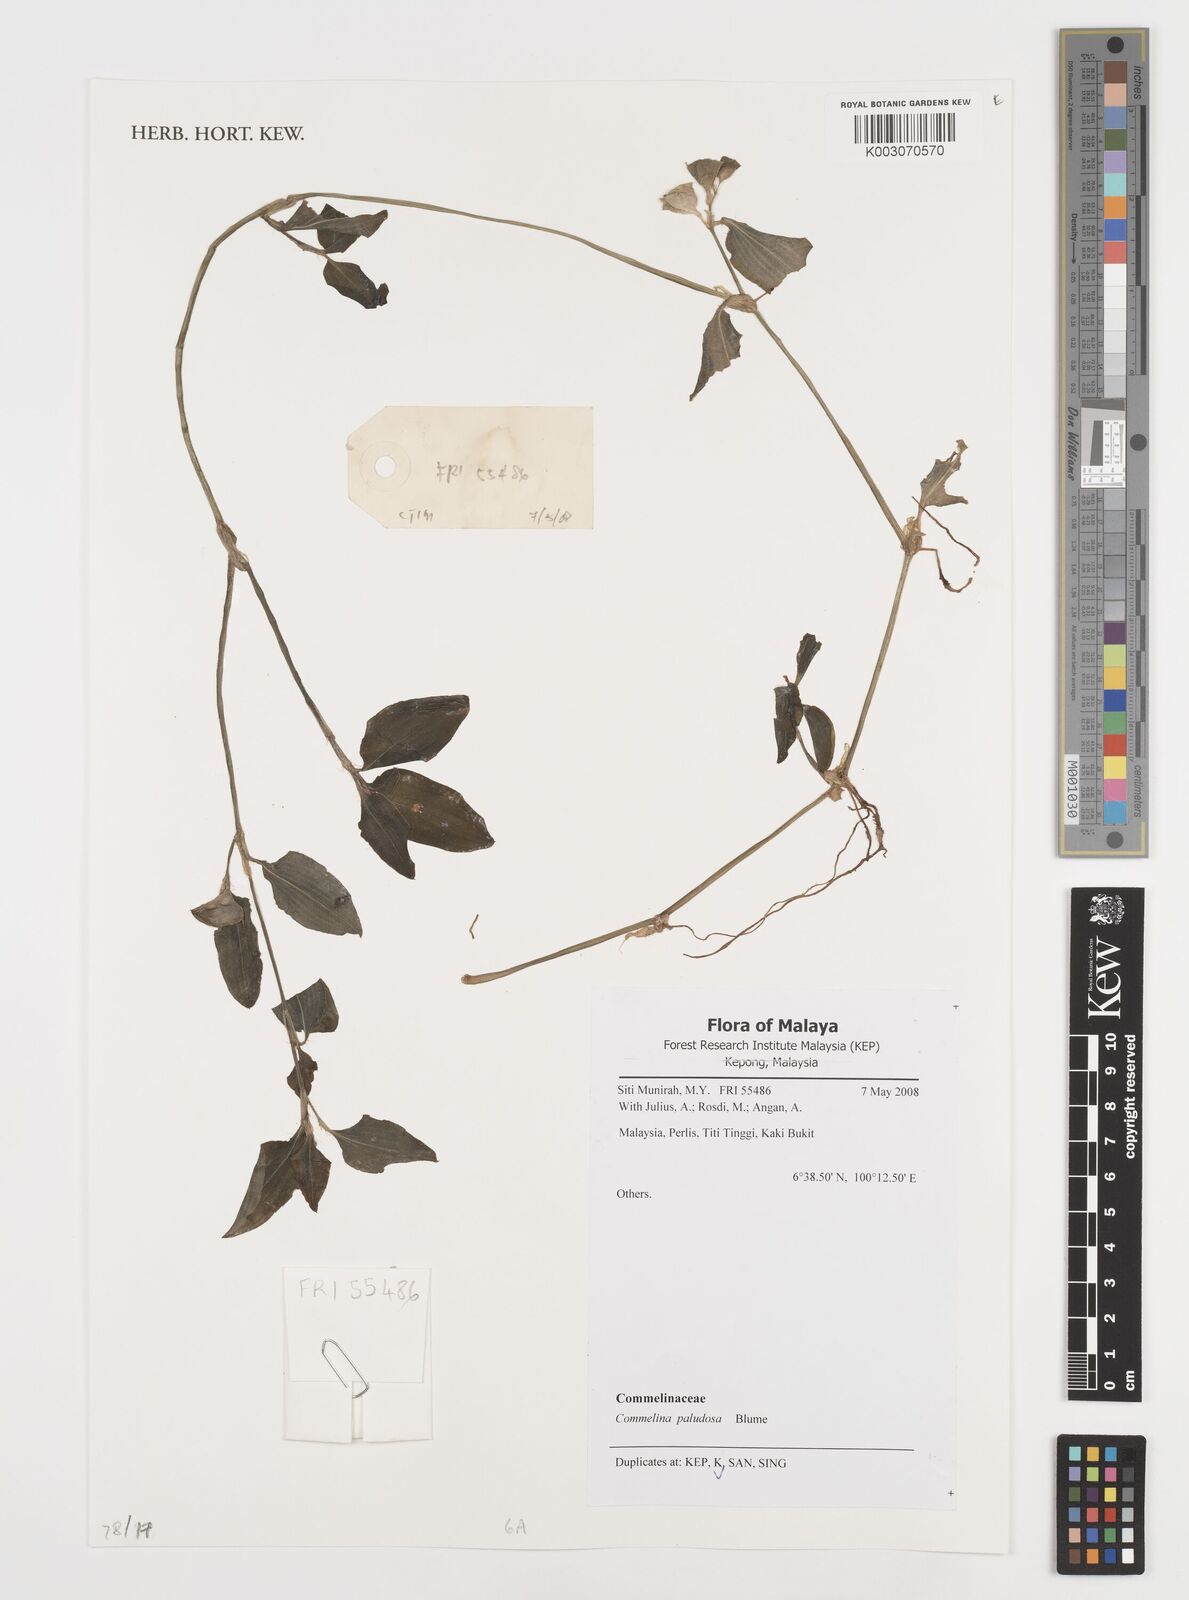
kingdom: Plantae
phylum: Tracheophyta
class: Liliopsida
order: Commelinales
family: Commelinaceae
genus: Commelina
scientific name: Commelina paludosa
